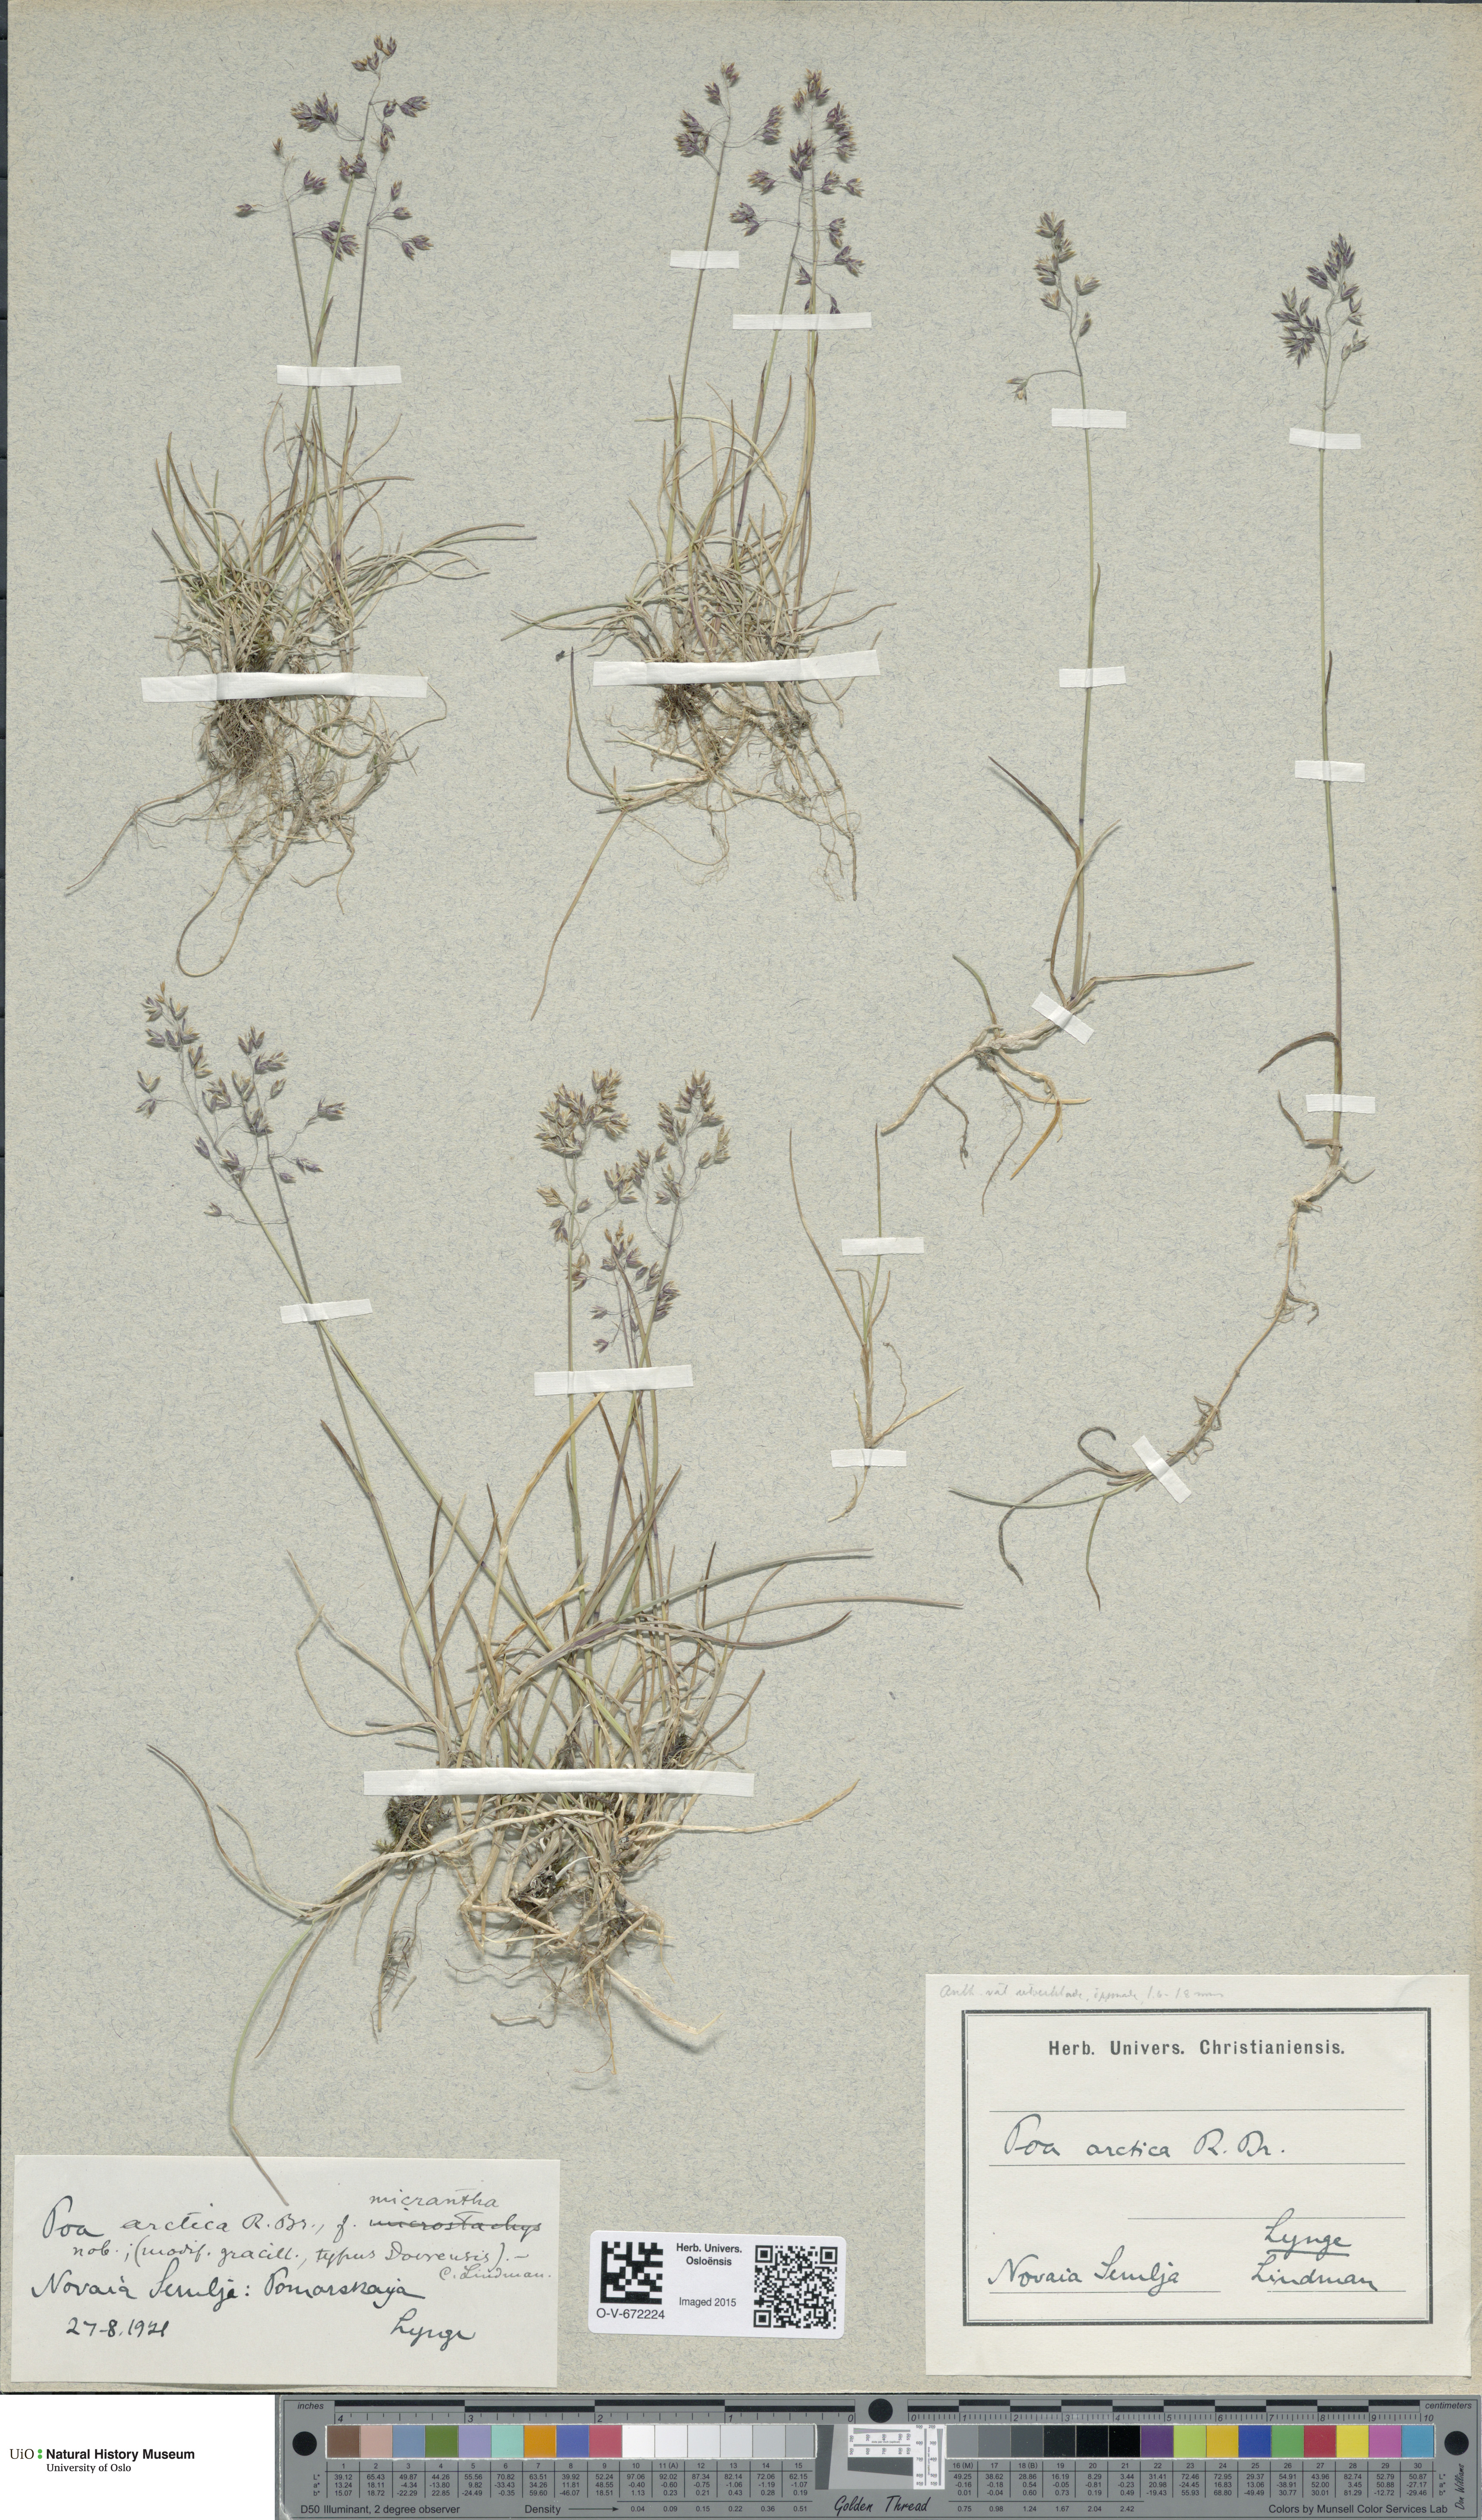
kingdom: Plantae
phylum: Tracheophyta
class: Liliopsida
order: Poales
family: Poaceae
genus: Poa
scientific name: Poa arctica
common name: Arctic bluegrass
